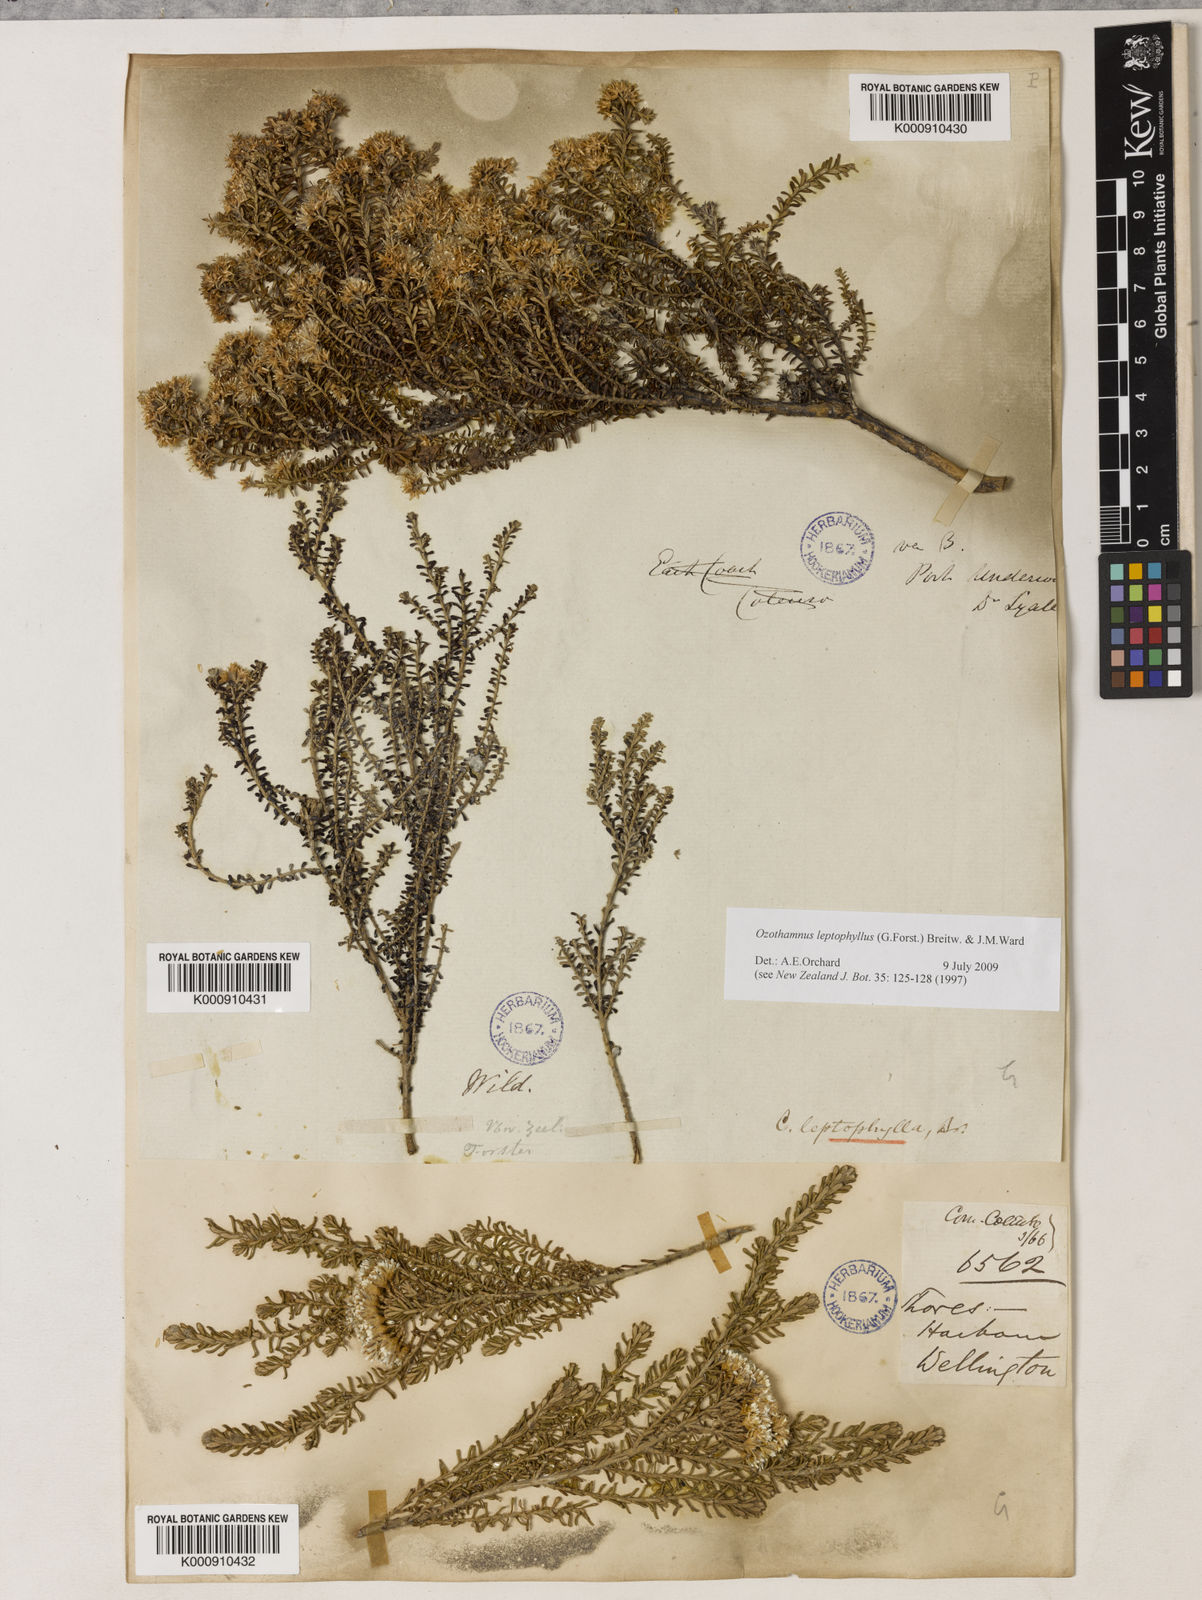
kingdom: Plantae
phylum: Tracheophyta
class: Magnoliopsida
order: Asterales
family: Asteraceae
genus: Ozothamnus
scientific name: Ozothamnus leptophyllus
